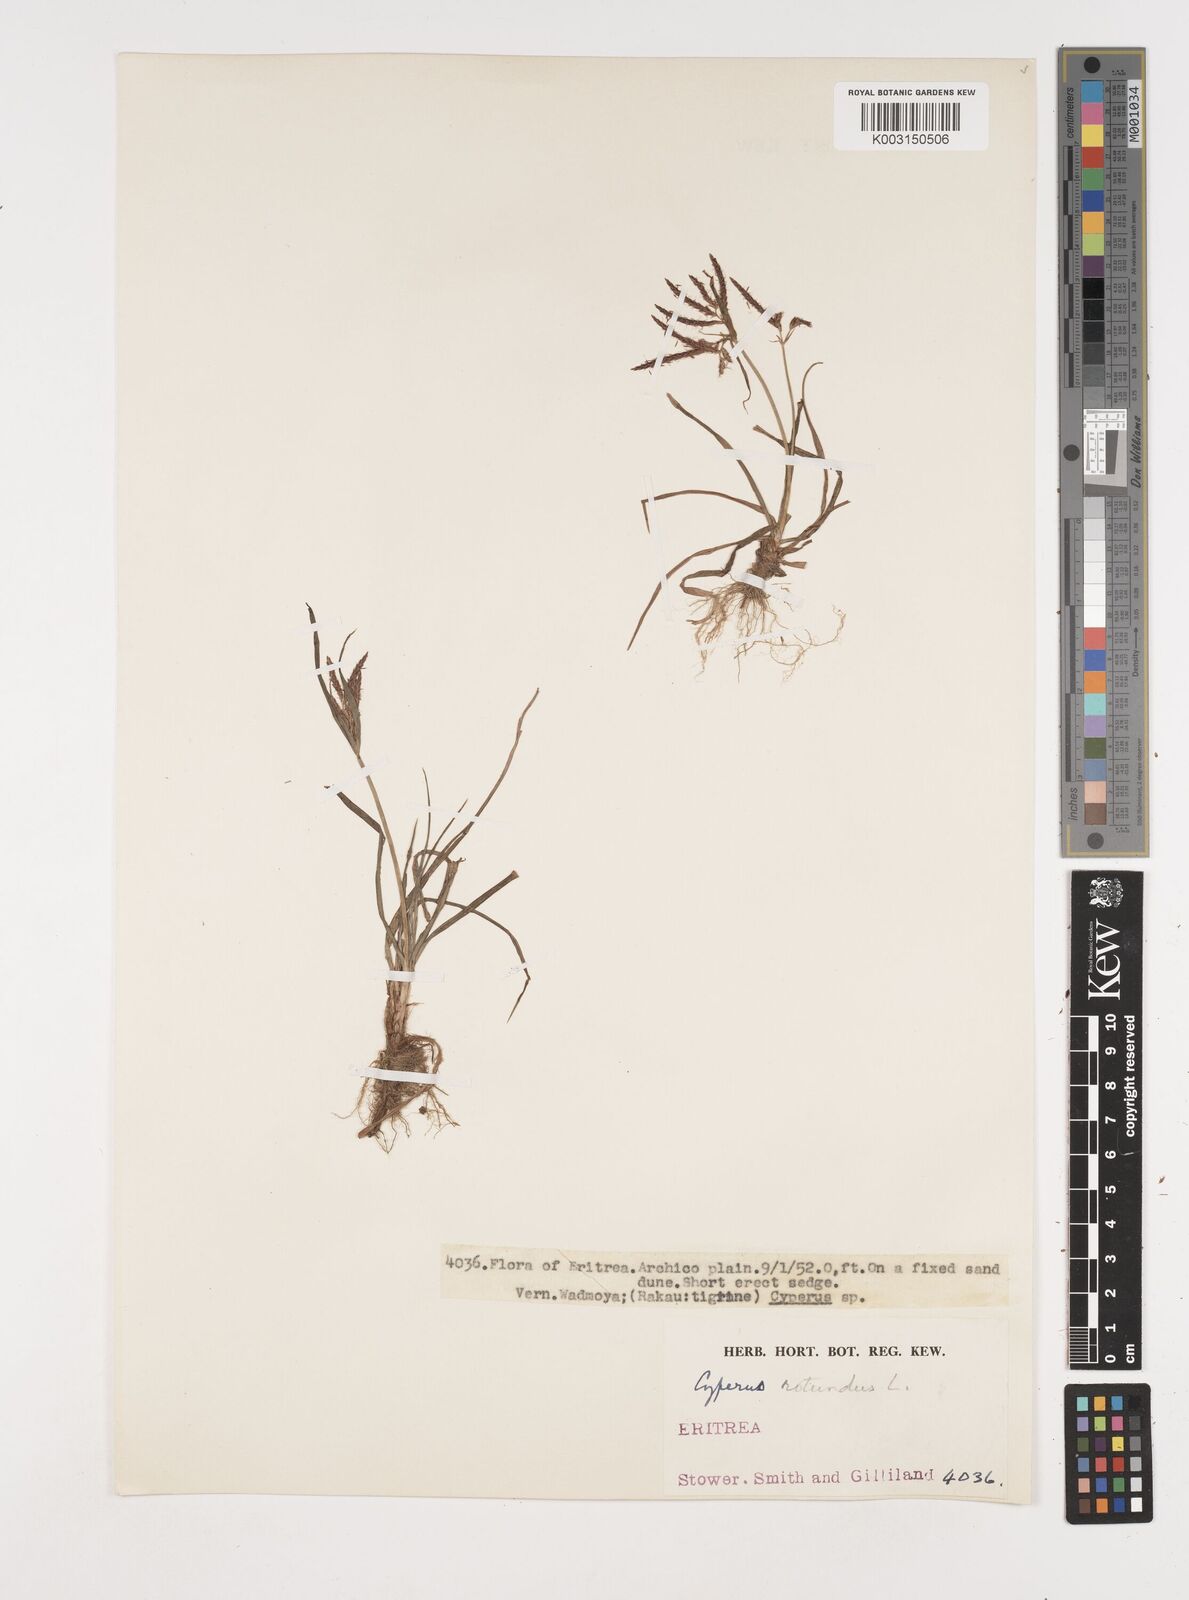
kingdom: Plantae
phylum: Tracheophyta
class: Liliopsida
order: Poales
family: Cyperaceae
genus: Cyperus
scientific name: Cyperus rotundus
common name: Nutgrass
